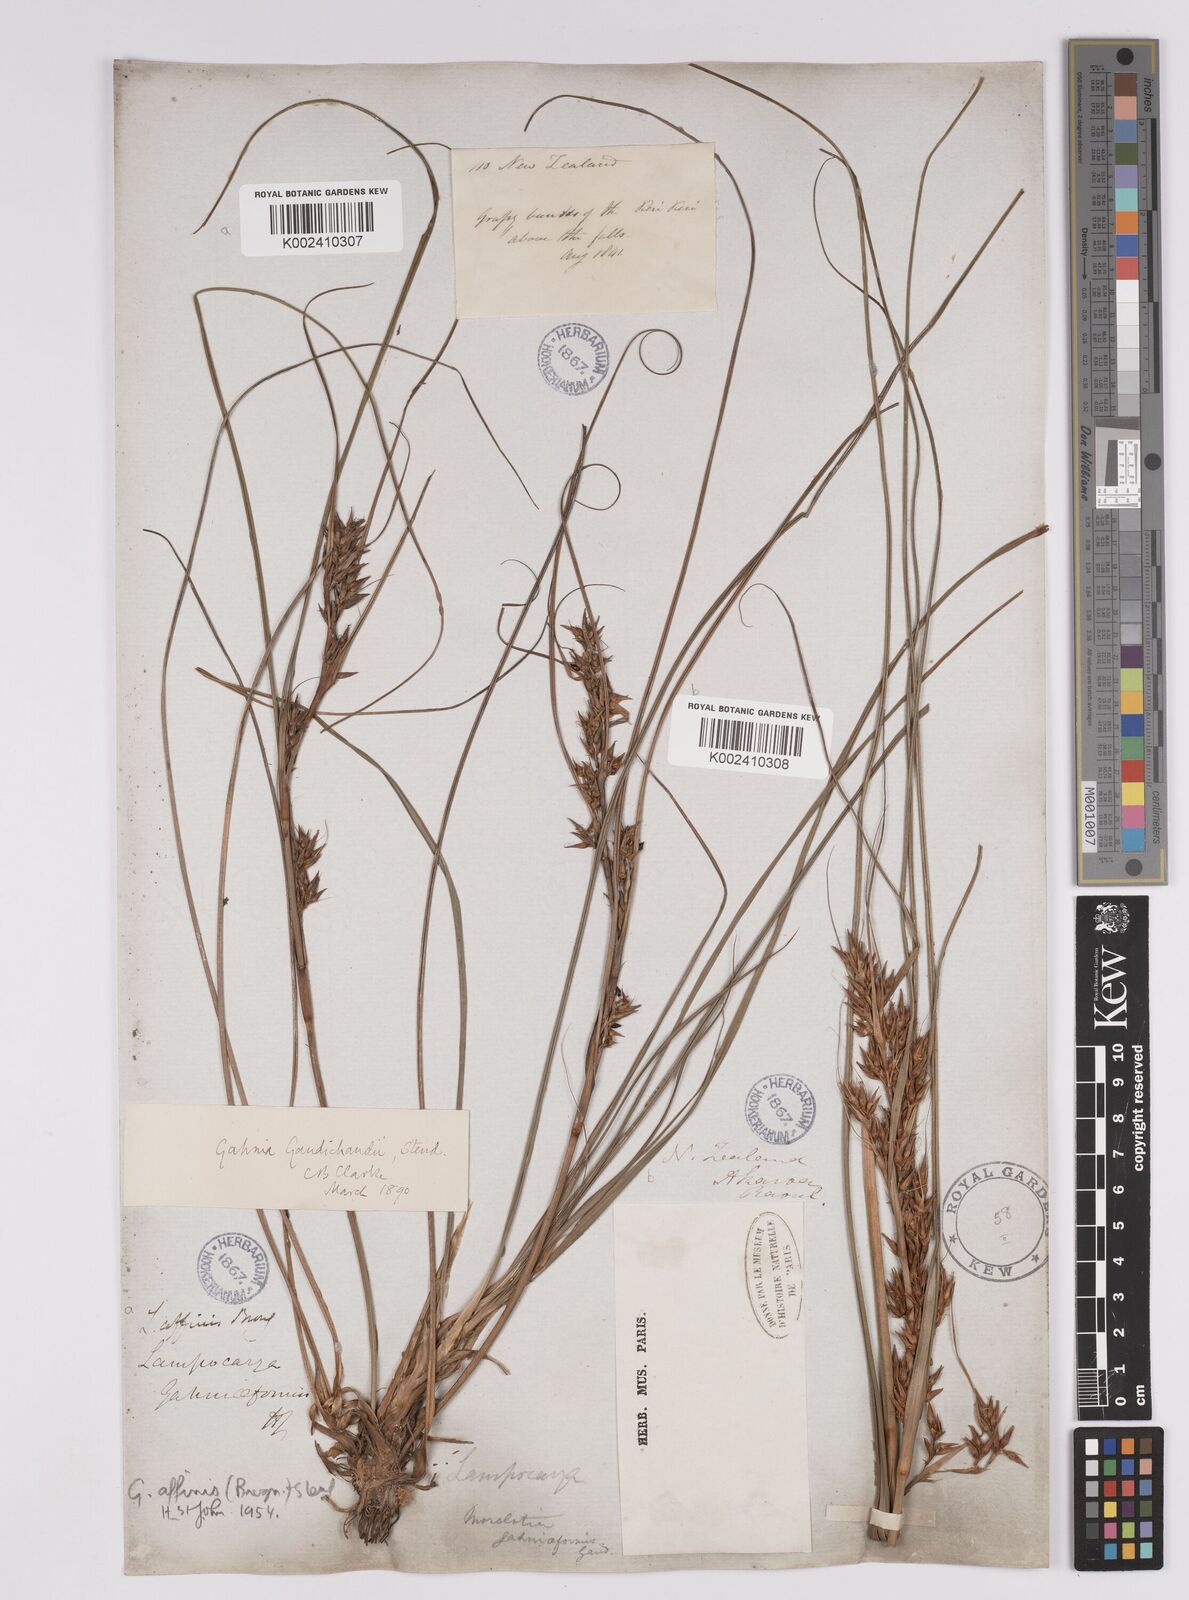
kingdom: Plantae
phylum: Tracheophyta
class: Liliopsida
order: Poales
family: Cyperaceae
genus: Morelotia
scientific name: Morelotia affinis
